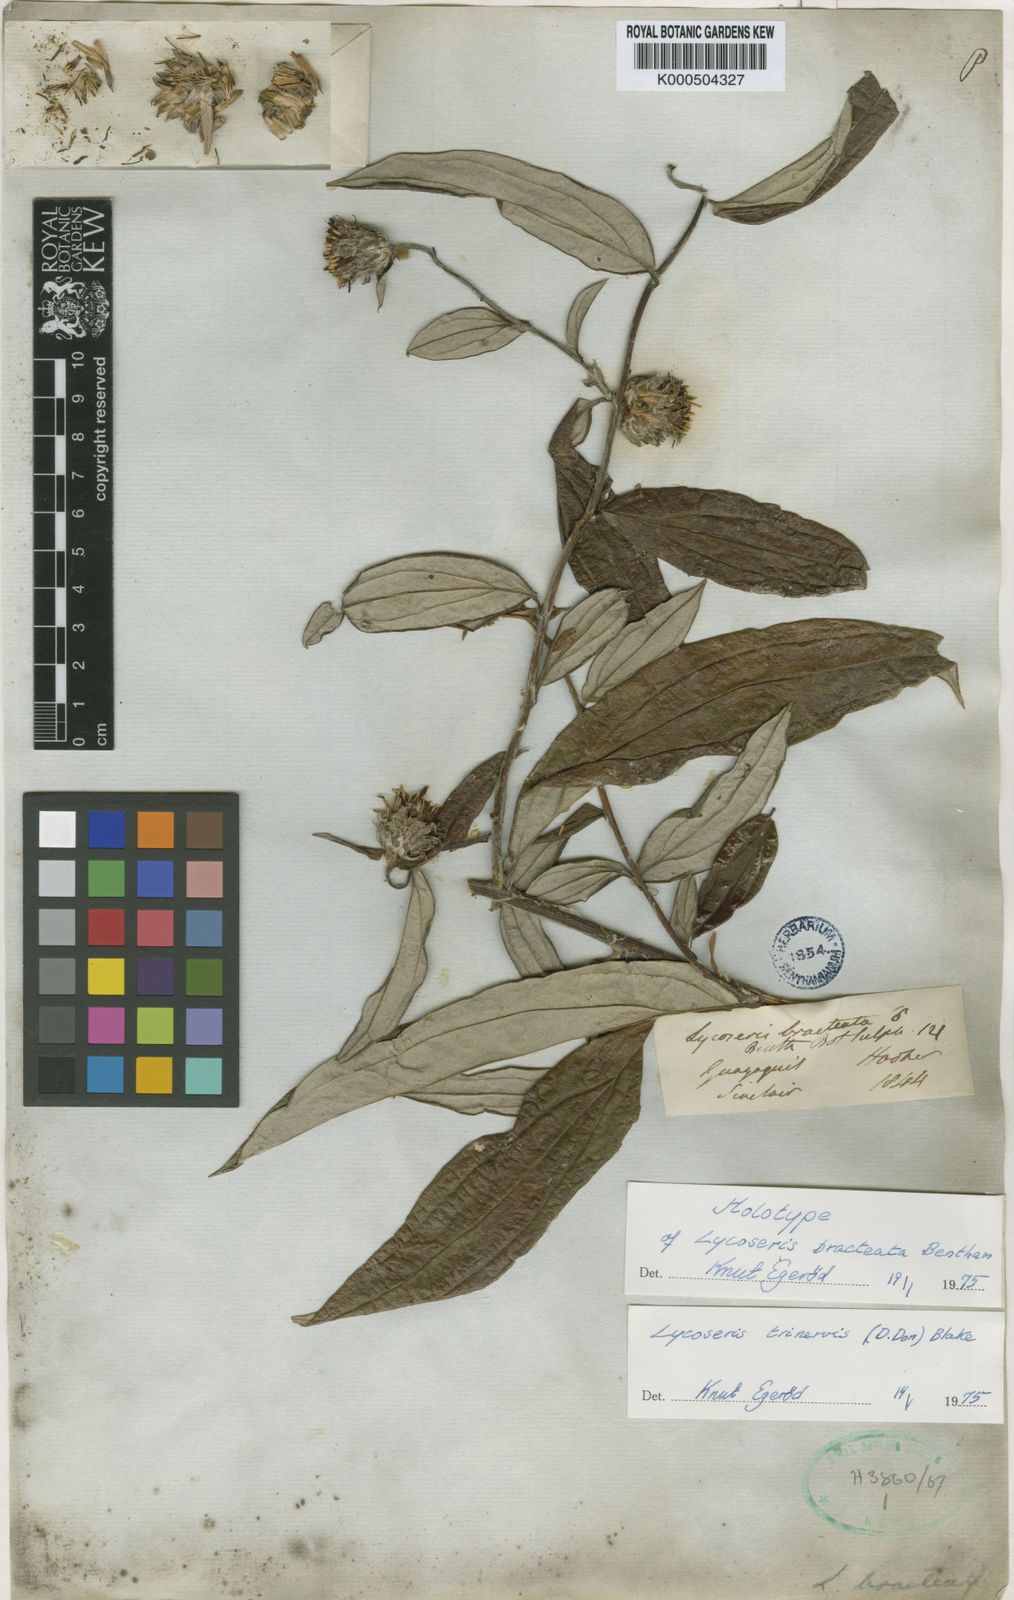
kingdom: Plantae
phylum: Tracheophyta
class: Magnoliopsida
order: Asterales
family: Asteraceae
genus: Lycoseris
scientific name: Lycoseris trinervis
